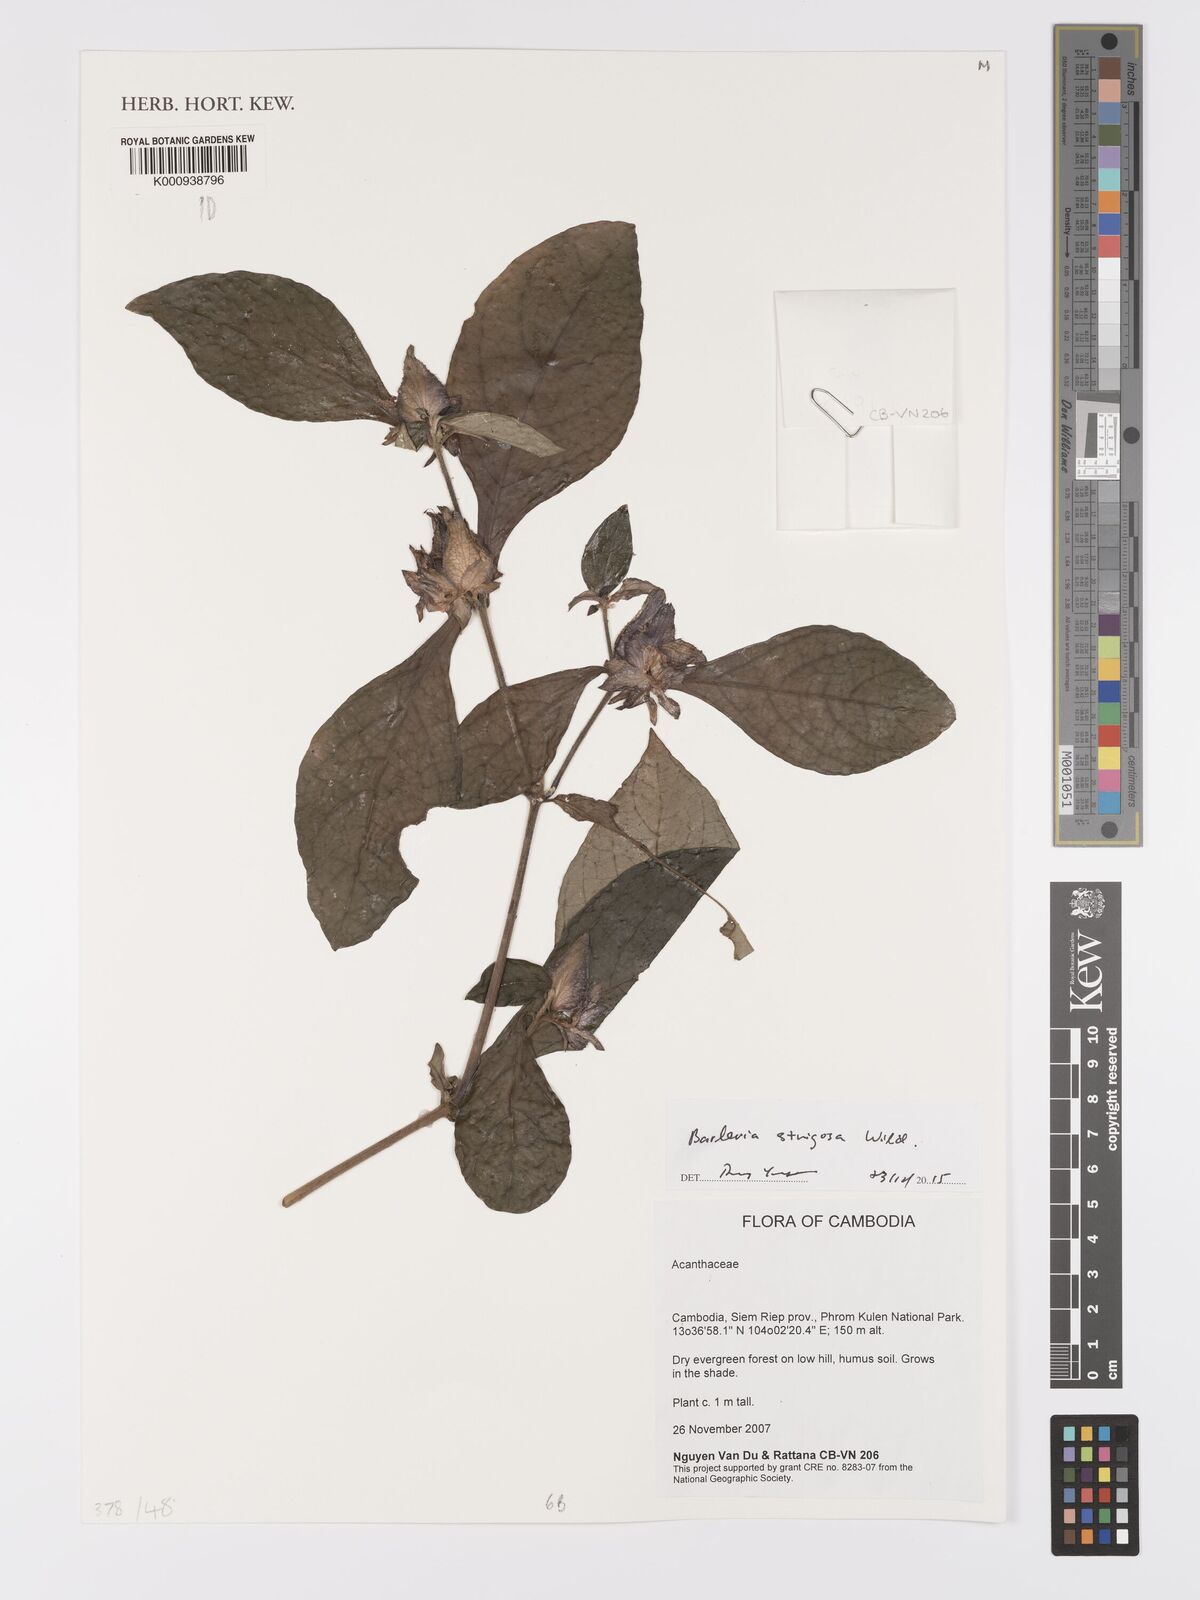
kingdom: Plantae
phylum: Tracheophyta
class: Magnoliopsida
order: Lamiales
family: Acanthaceae
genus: Barleria
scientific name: Barleria strigosa
